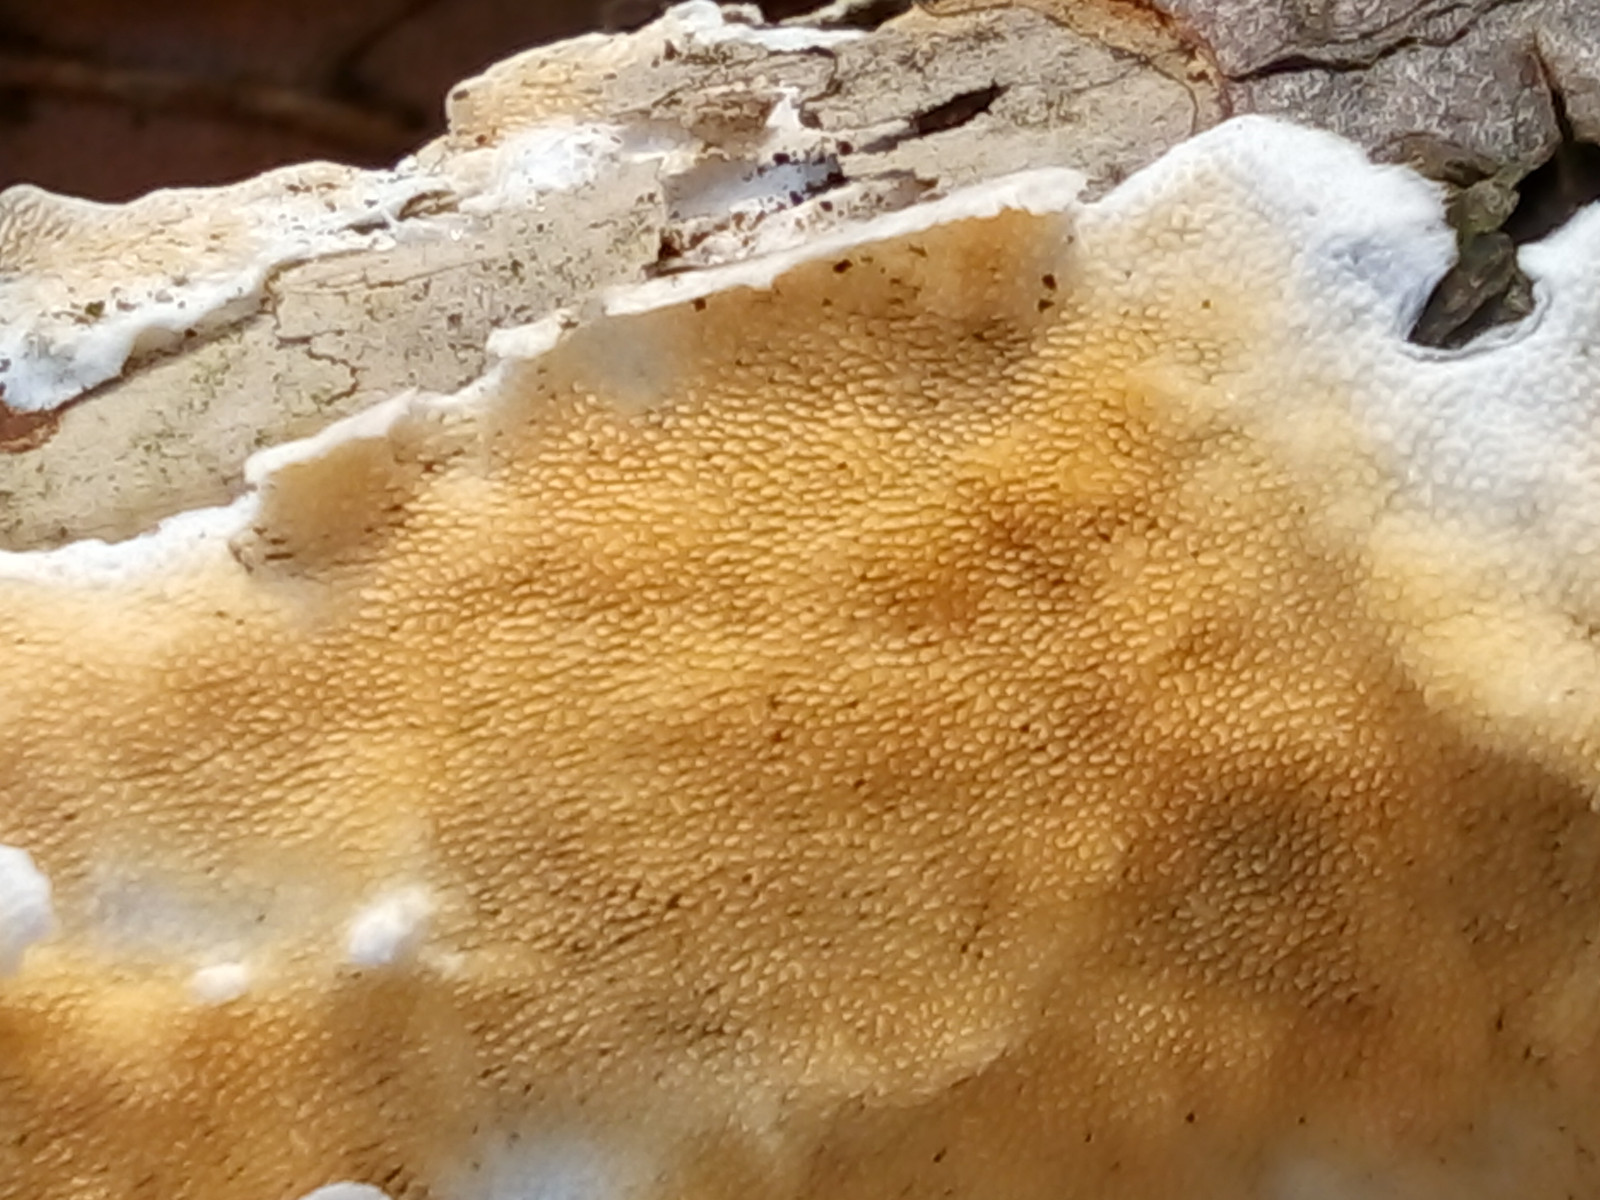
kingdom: Fungi
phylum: Basidiomycota
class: Agaricomycetes
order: Polyporales
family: Steccherinaceae
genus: Steccherinum
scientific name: Steccherinum ochraceum
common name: almindelig skønpig
